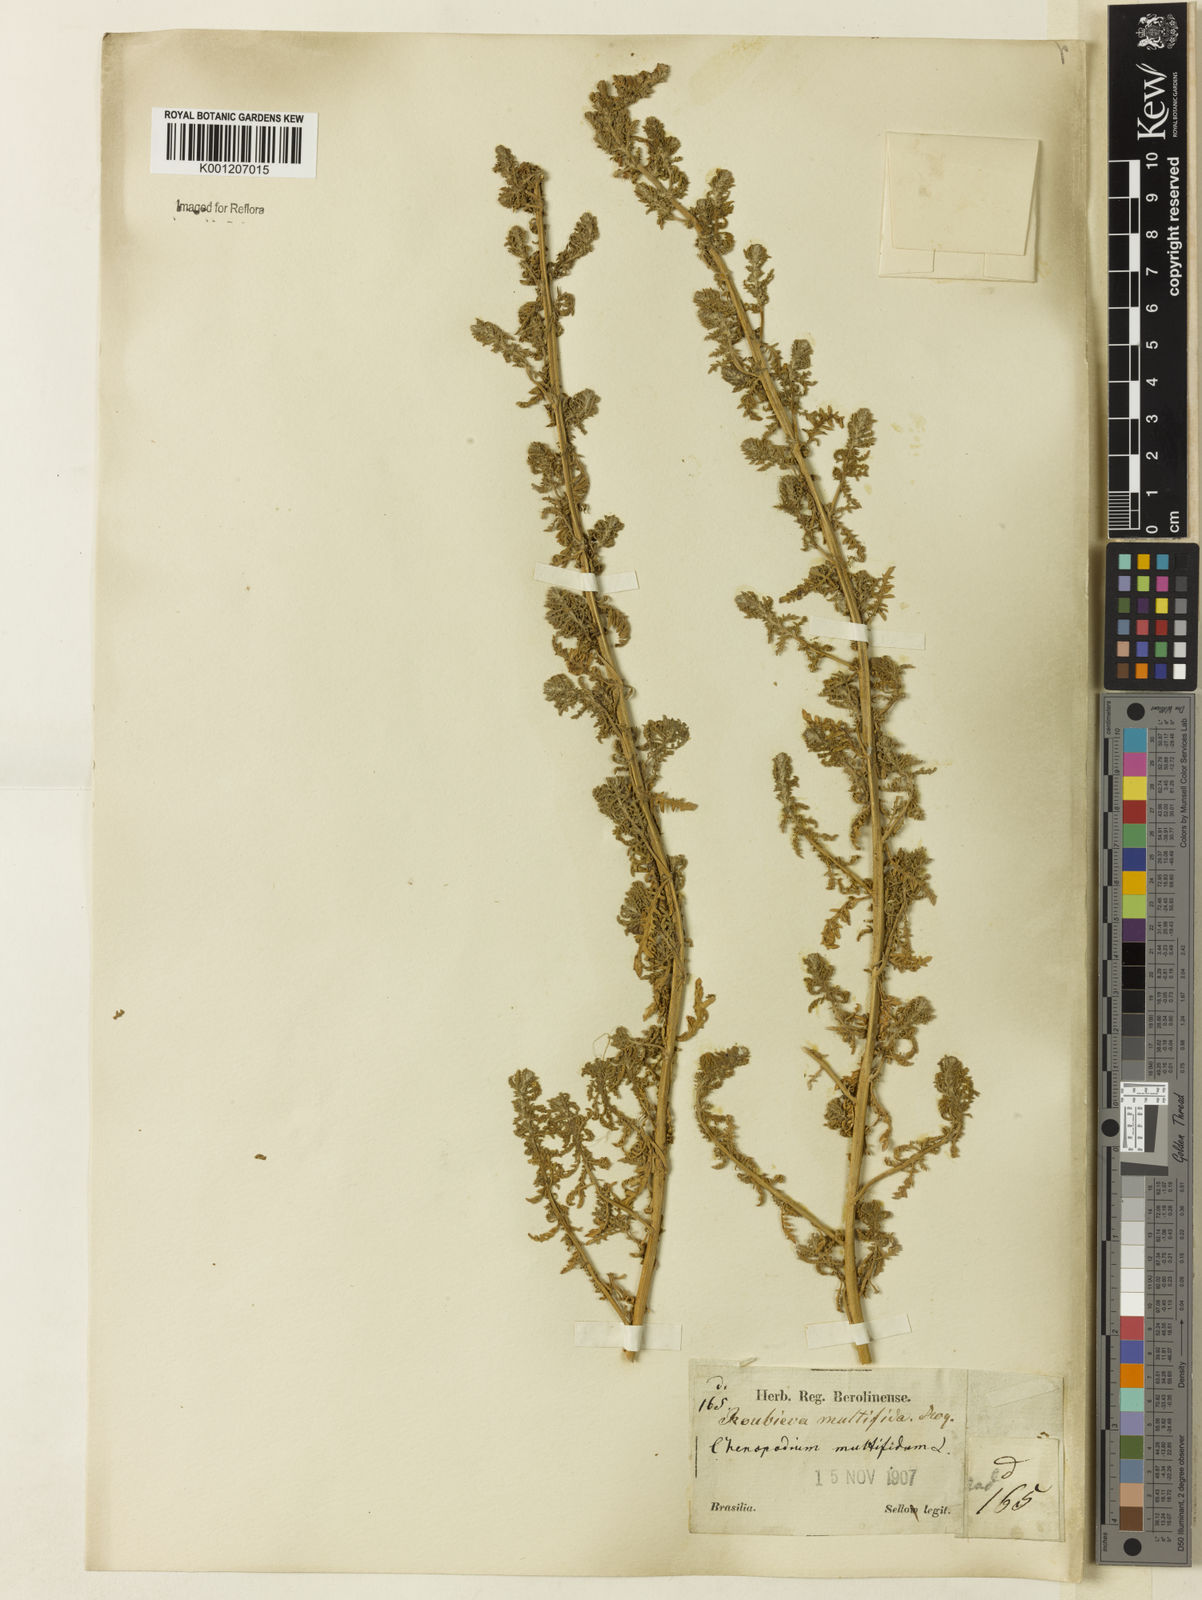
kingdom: Plantae
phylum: Tracheophyta
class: Magnoliopsida
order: Caryophyllales
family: Amaranthaceae
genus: Dysphania
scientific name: Dysphania multifida
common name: Cutleaf goosefoot
